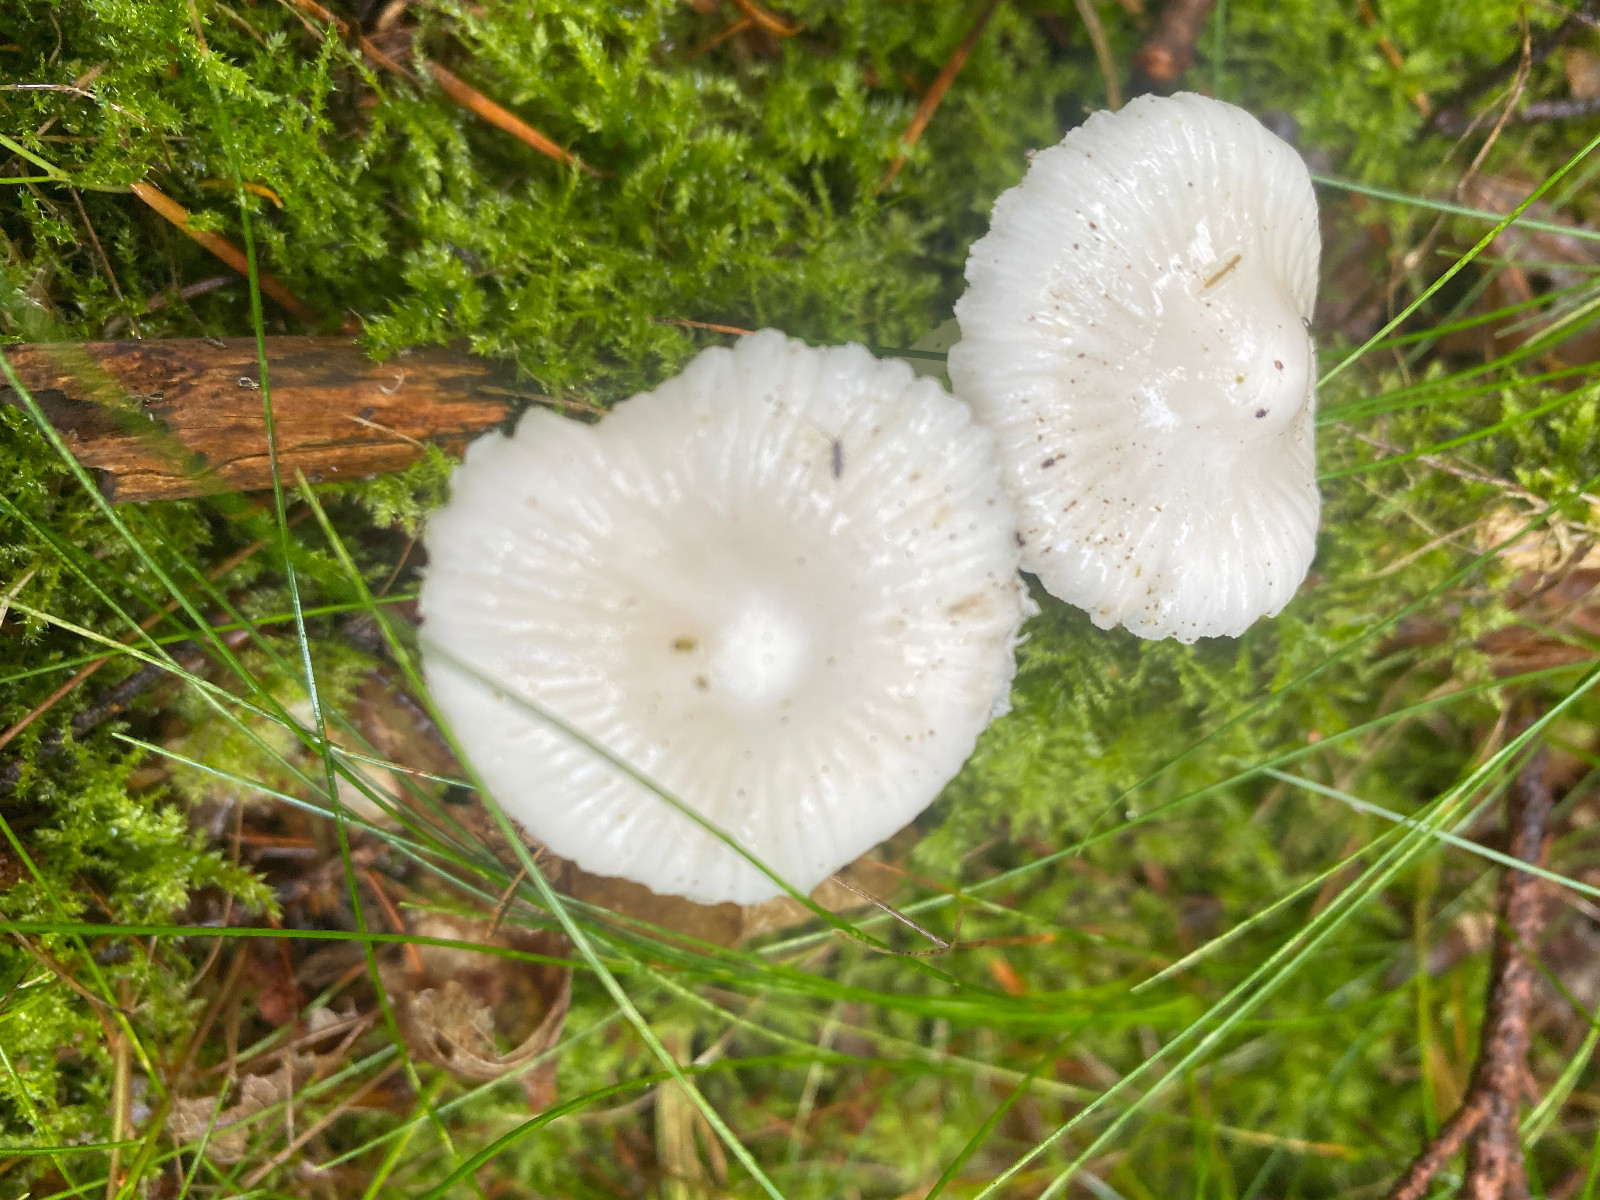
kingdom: Fungi
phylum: Basidiomycota
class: Agaricomycetes
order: Agaricales
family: Mycenaceae
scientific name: Mycenaceae
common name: huesvampfamilien
